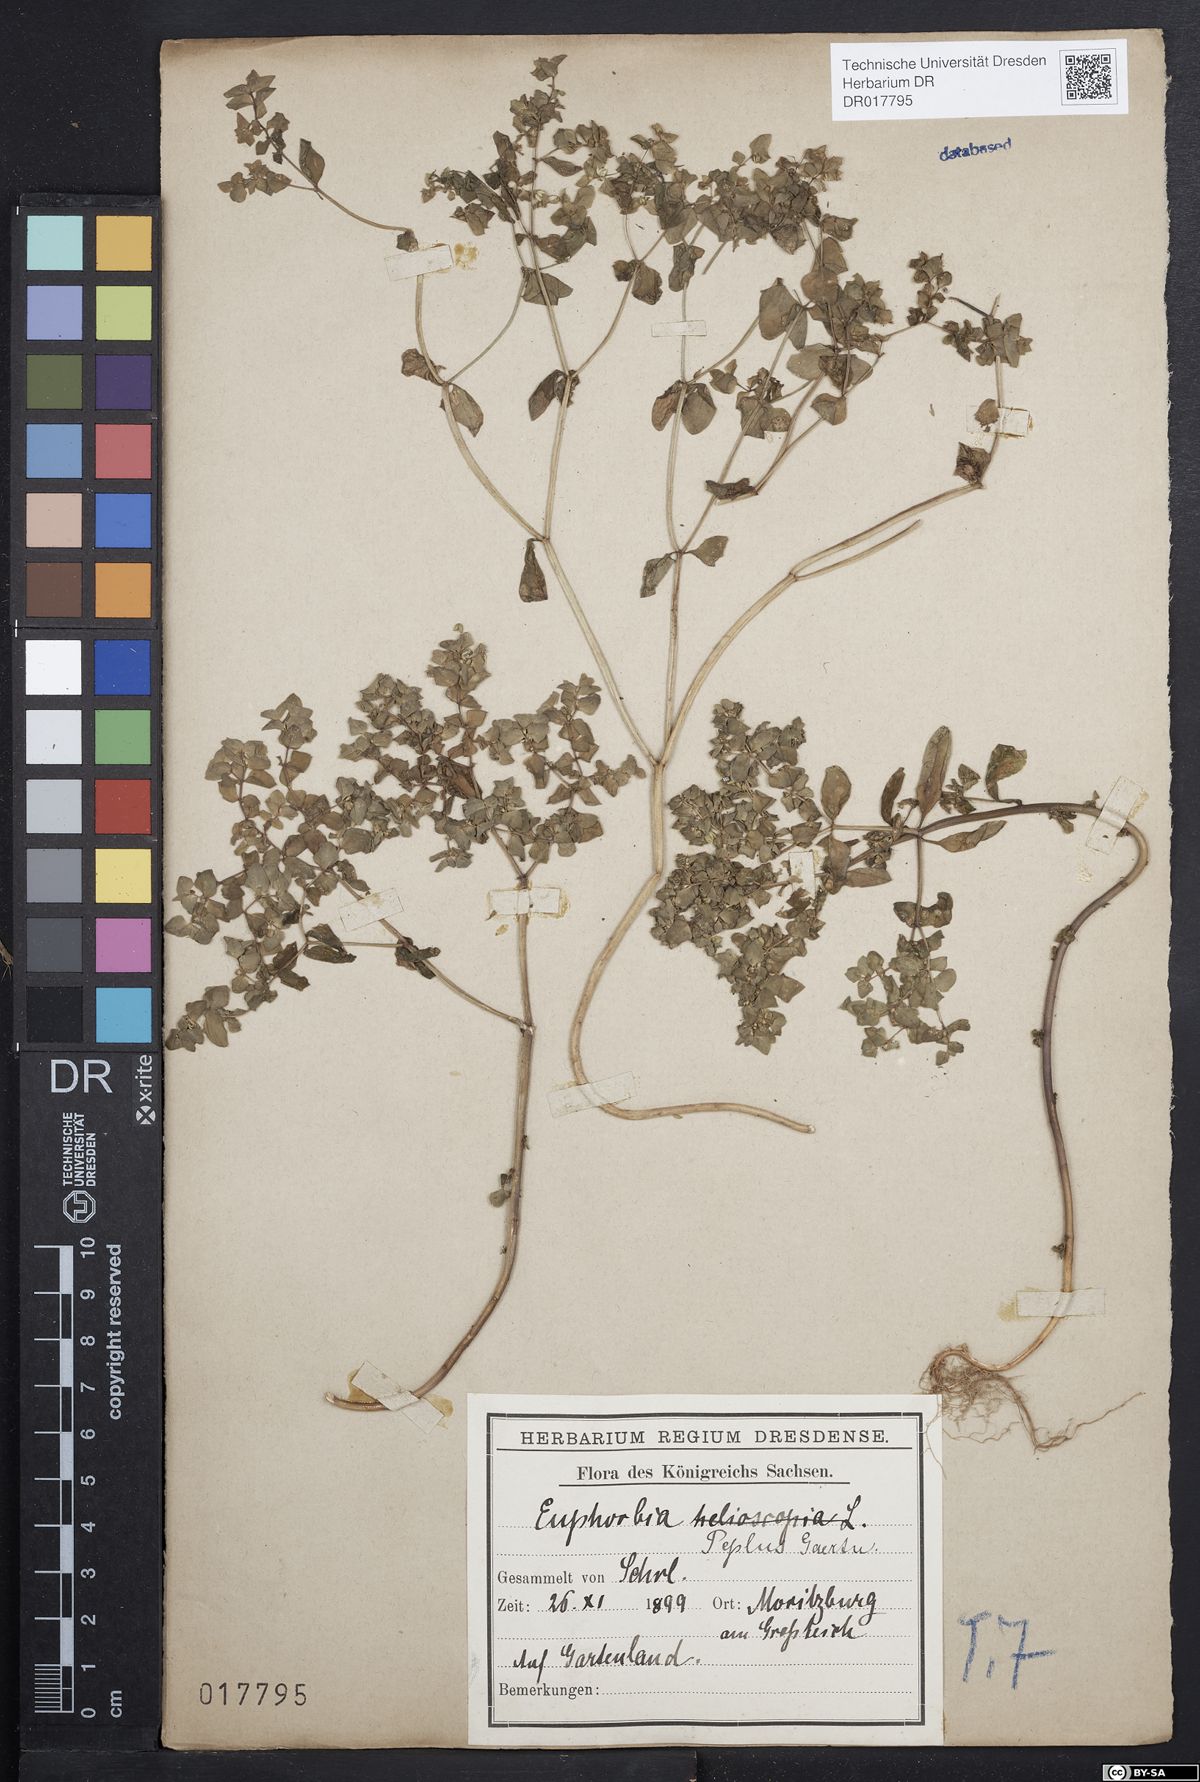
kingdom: Plantae
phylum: Tracheophyta
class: Magnoliopsida
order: Malpighiales
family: Euphorbiaceae
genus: Euphorbia
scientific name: Euphorbia peplus
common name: Petty spurge
